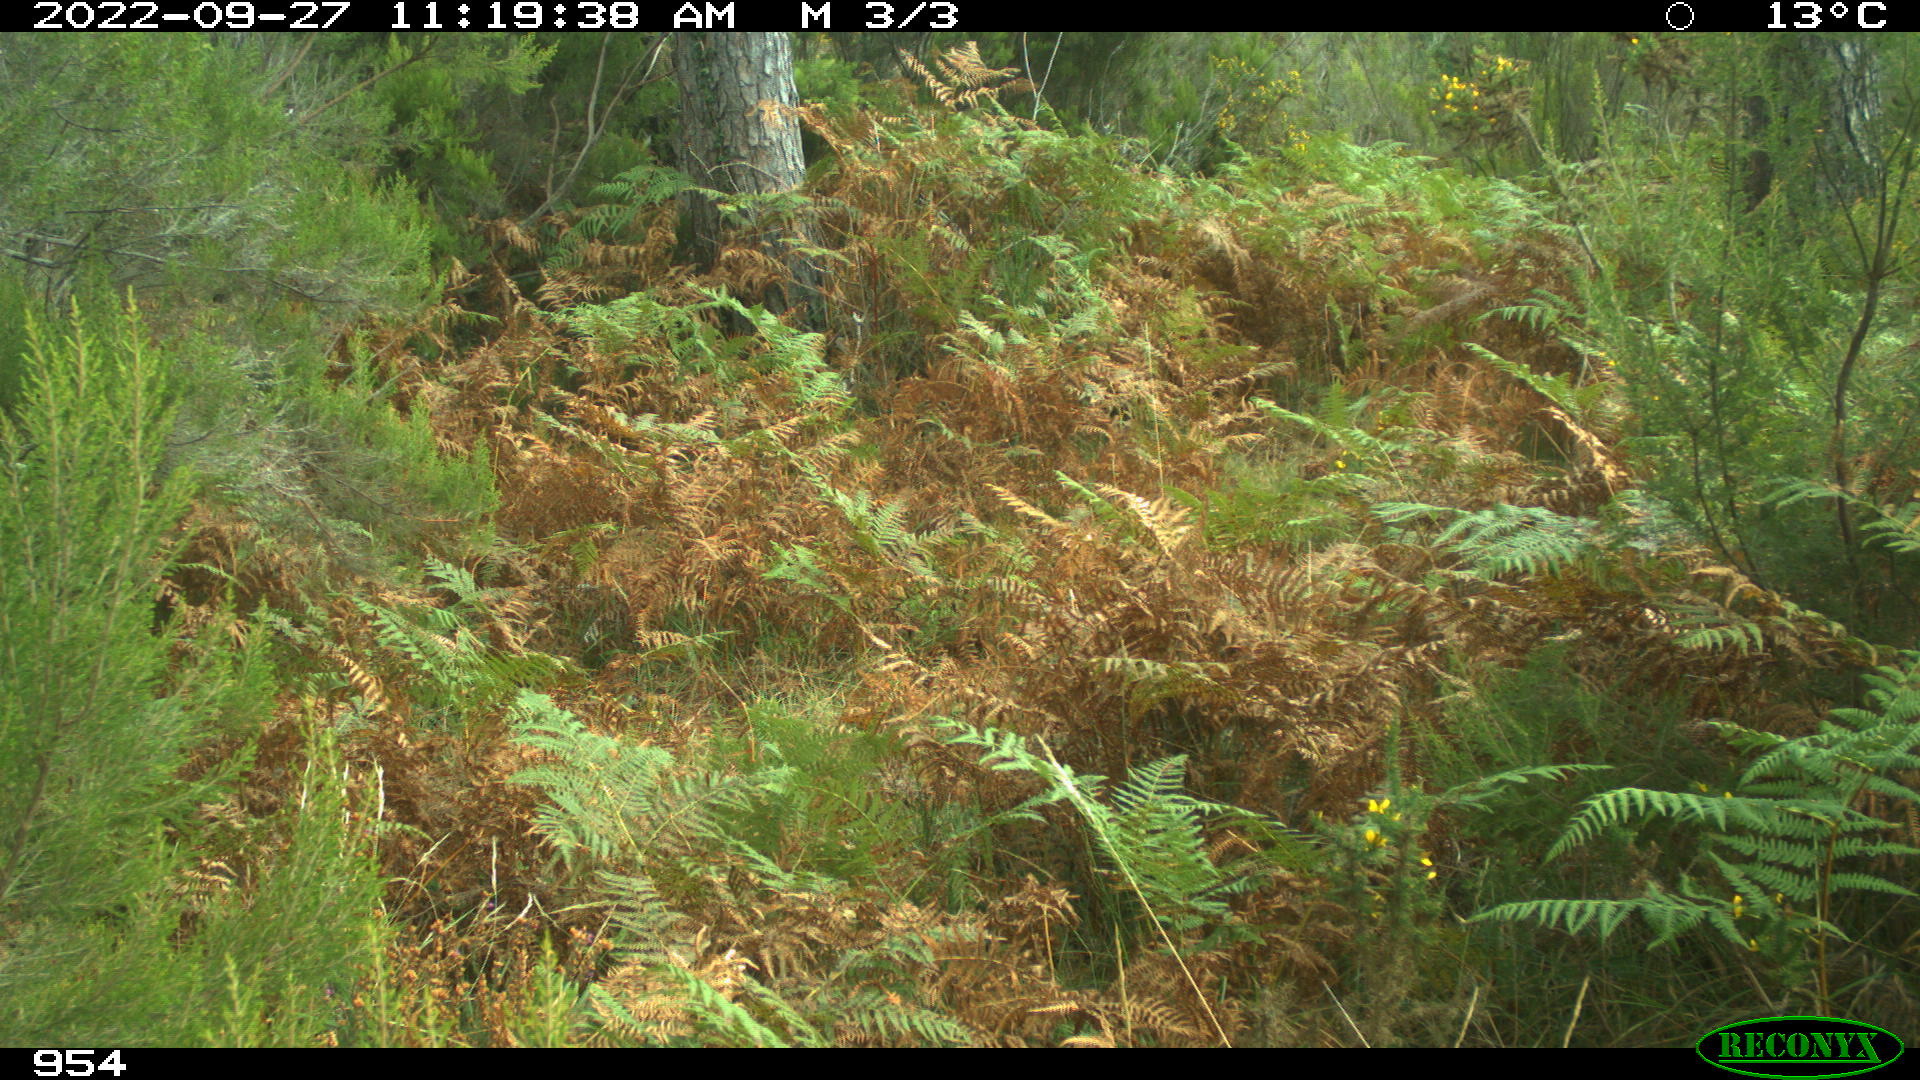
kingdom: Animalia
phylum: Chordata
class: Mammalia
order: Carnivora
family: Canidae
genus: Canis
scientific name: Canis lupus
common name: Gray wolf
